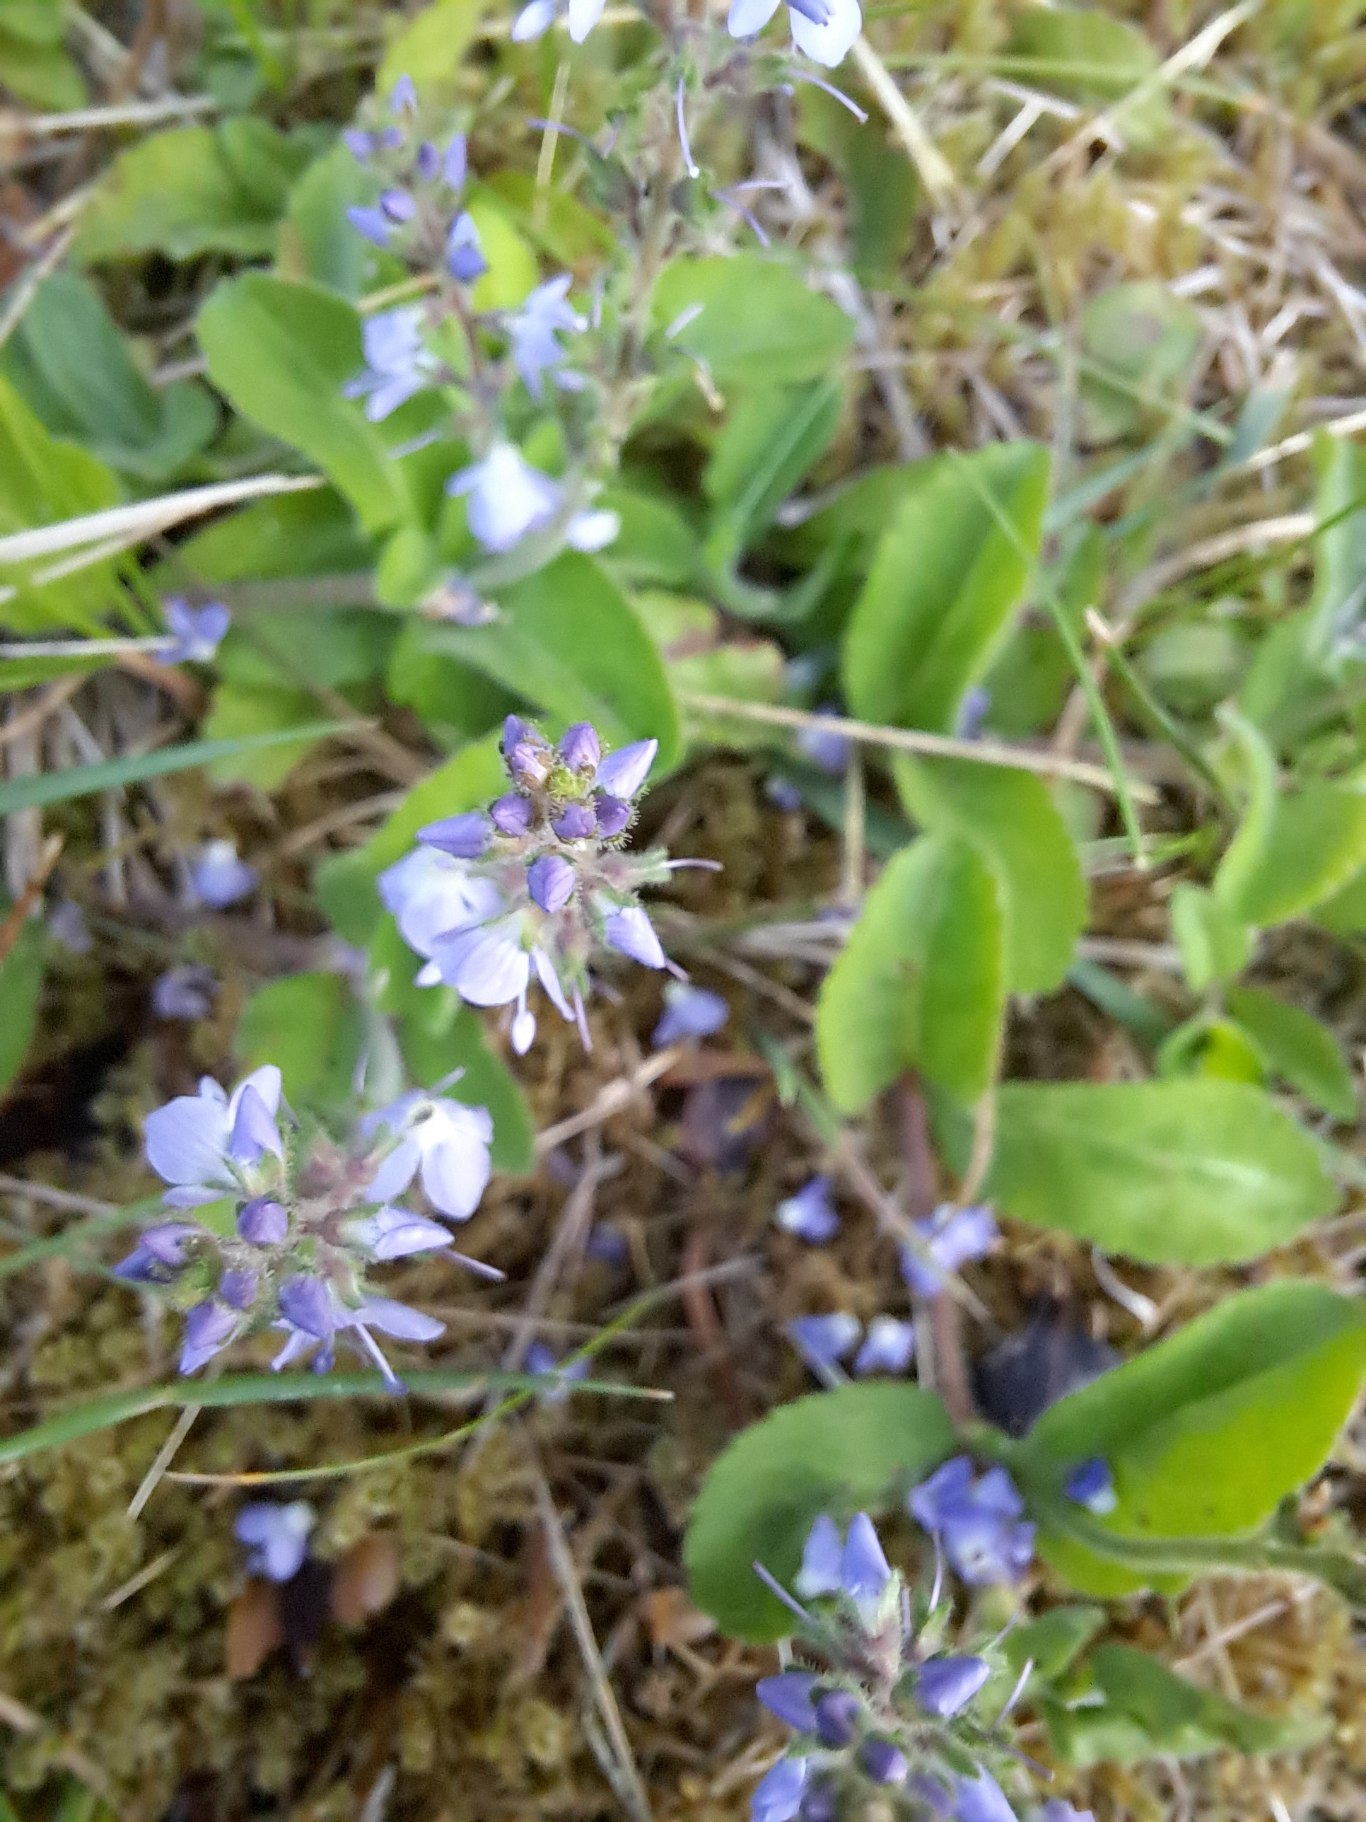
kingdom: Plantae
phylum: Tracheophyta
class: Magnoliopsida
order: Lamiales
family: Plantaginaceae
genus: Veronica
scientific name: Veronica officinalis
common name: Læge-ærenpris
